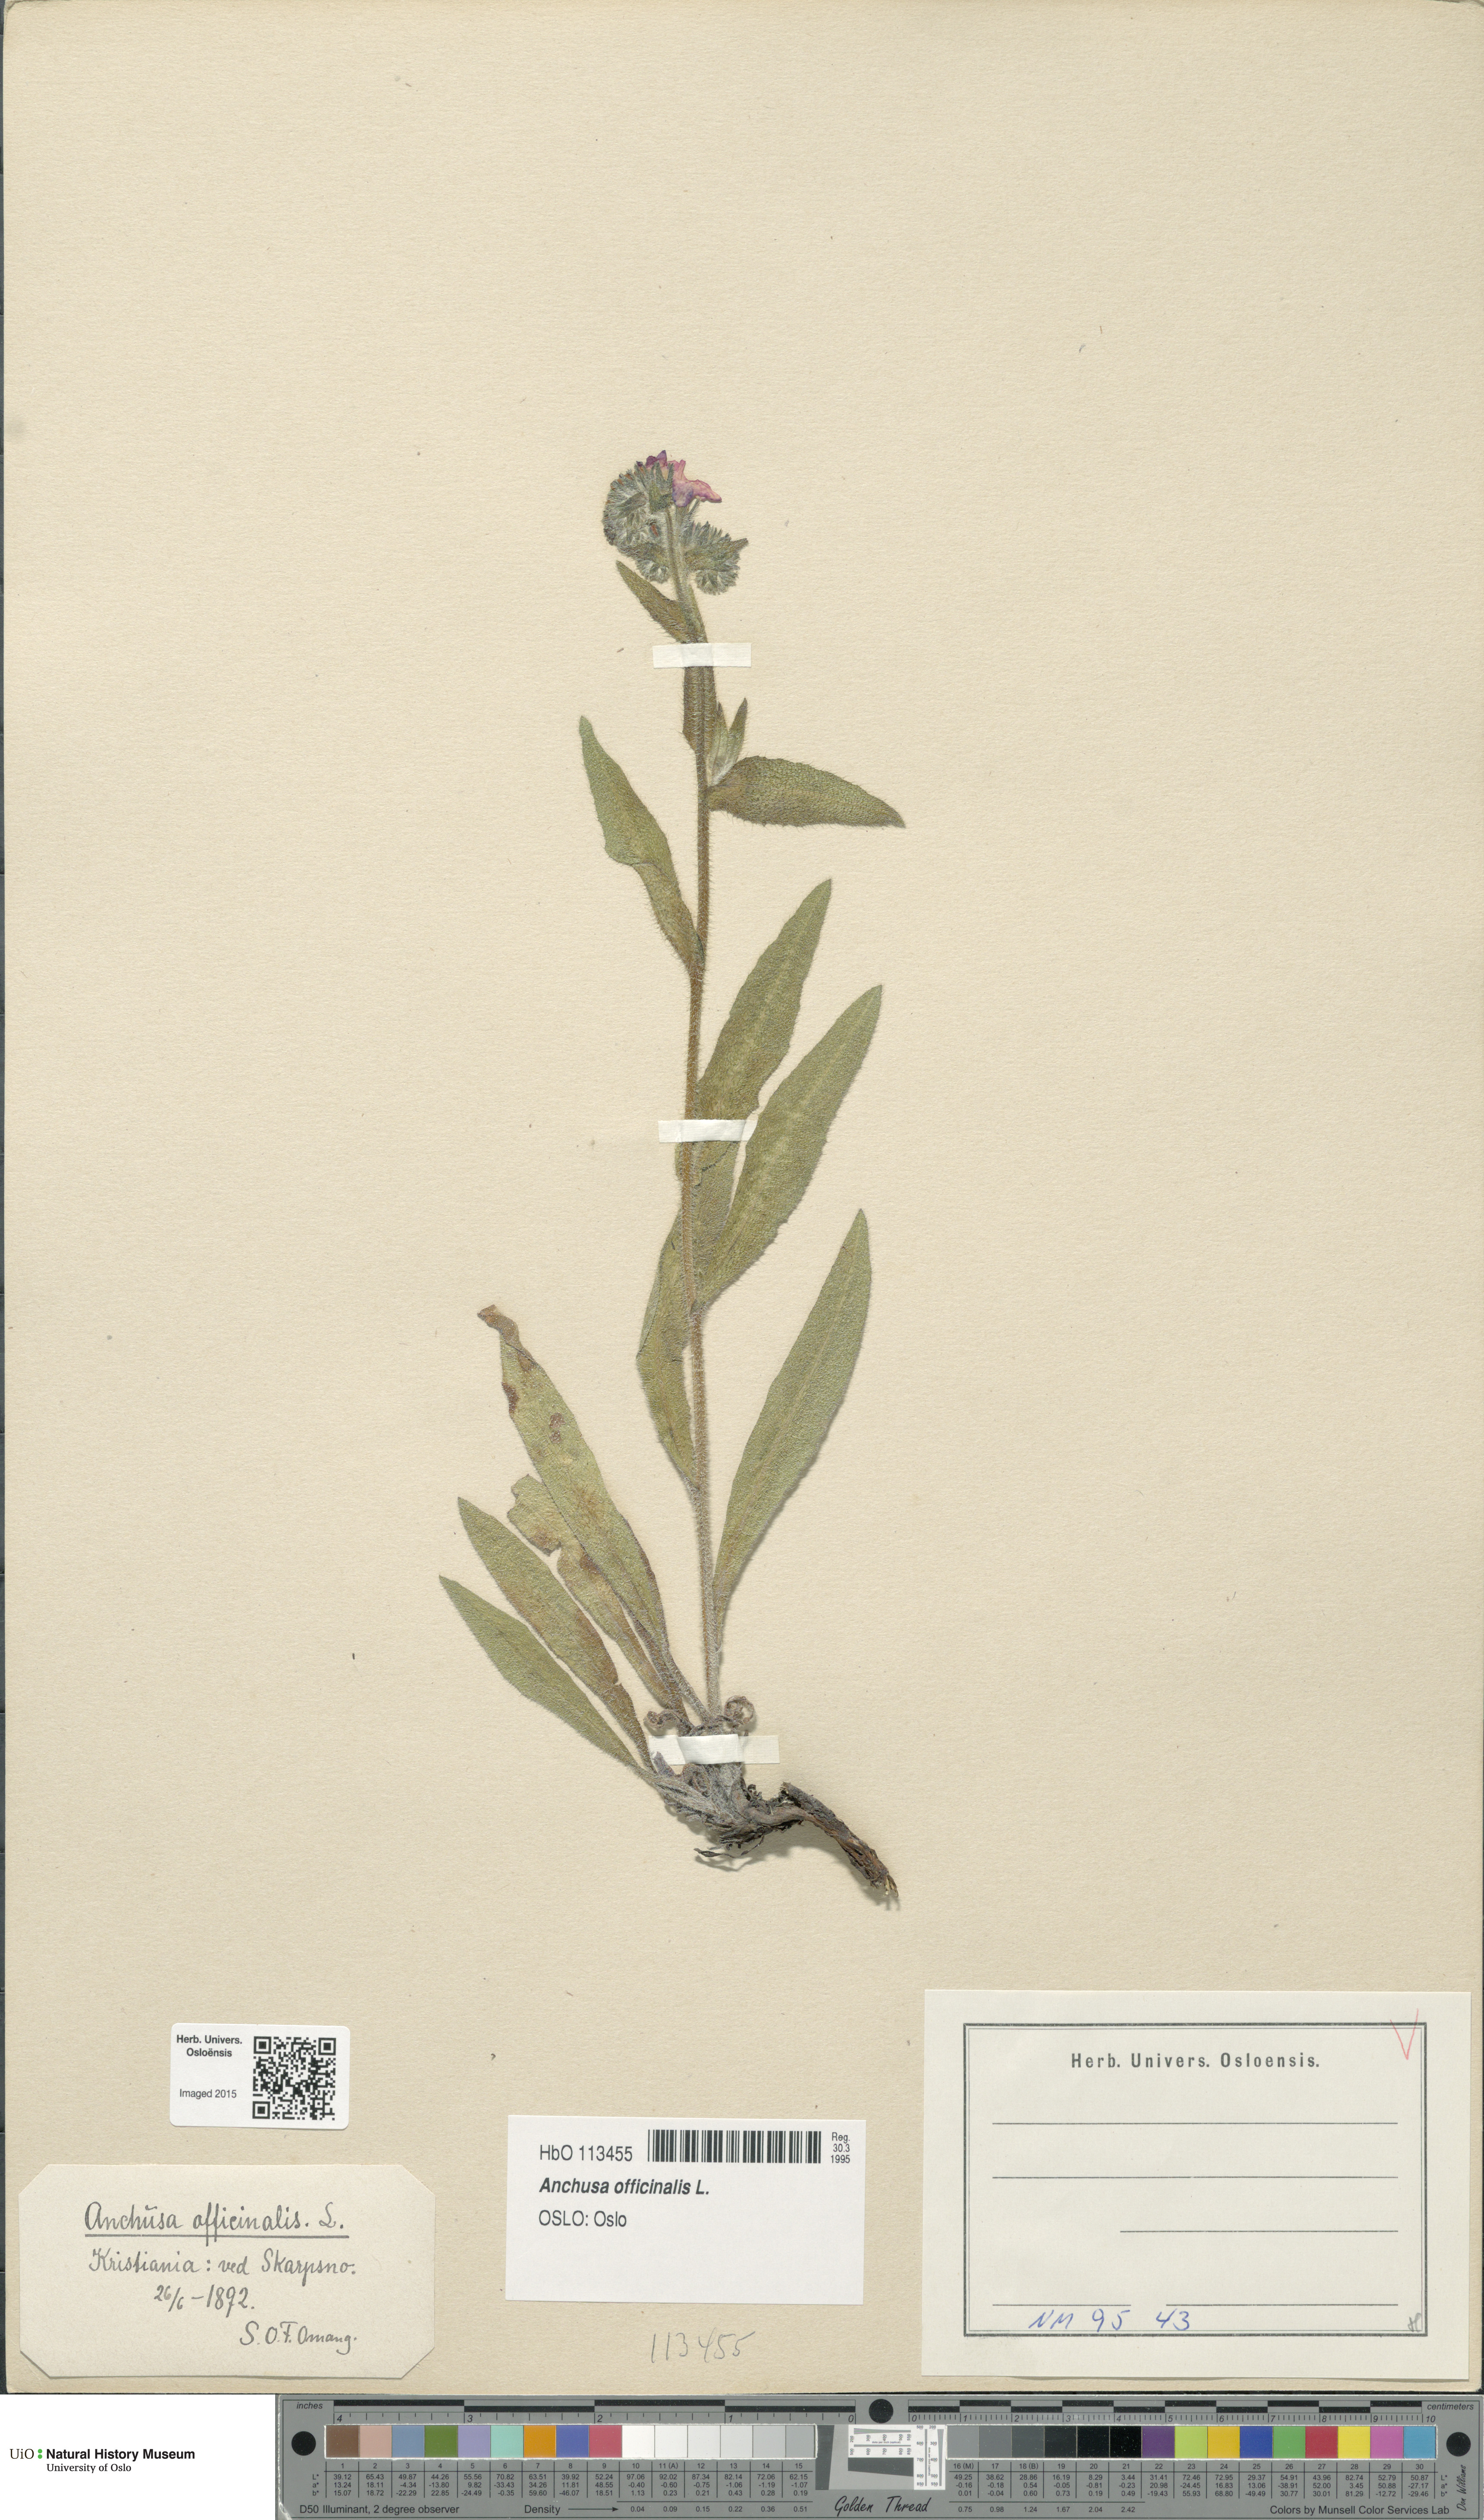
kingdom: Plantae
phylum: Tracheophyta
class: Magnoliopsida
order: Boraginales
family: Boraginaceae
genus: Anchusa
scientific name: Anchusa officinalis
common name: Alkanet
